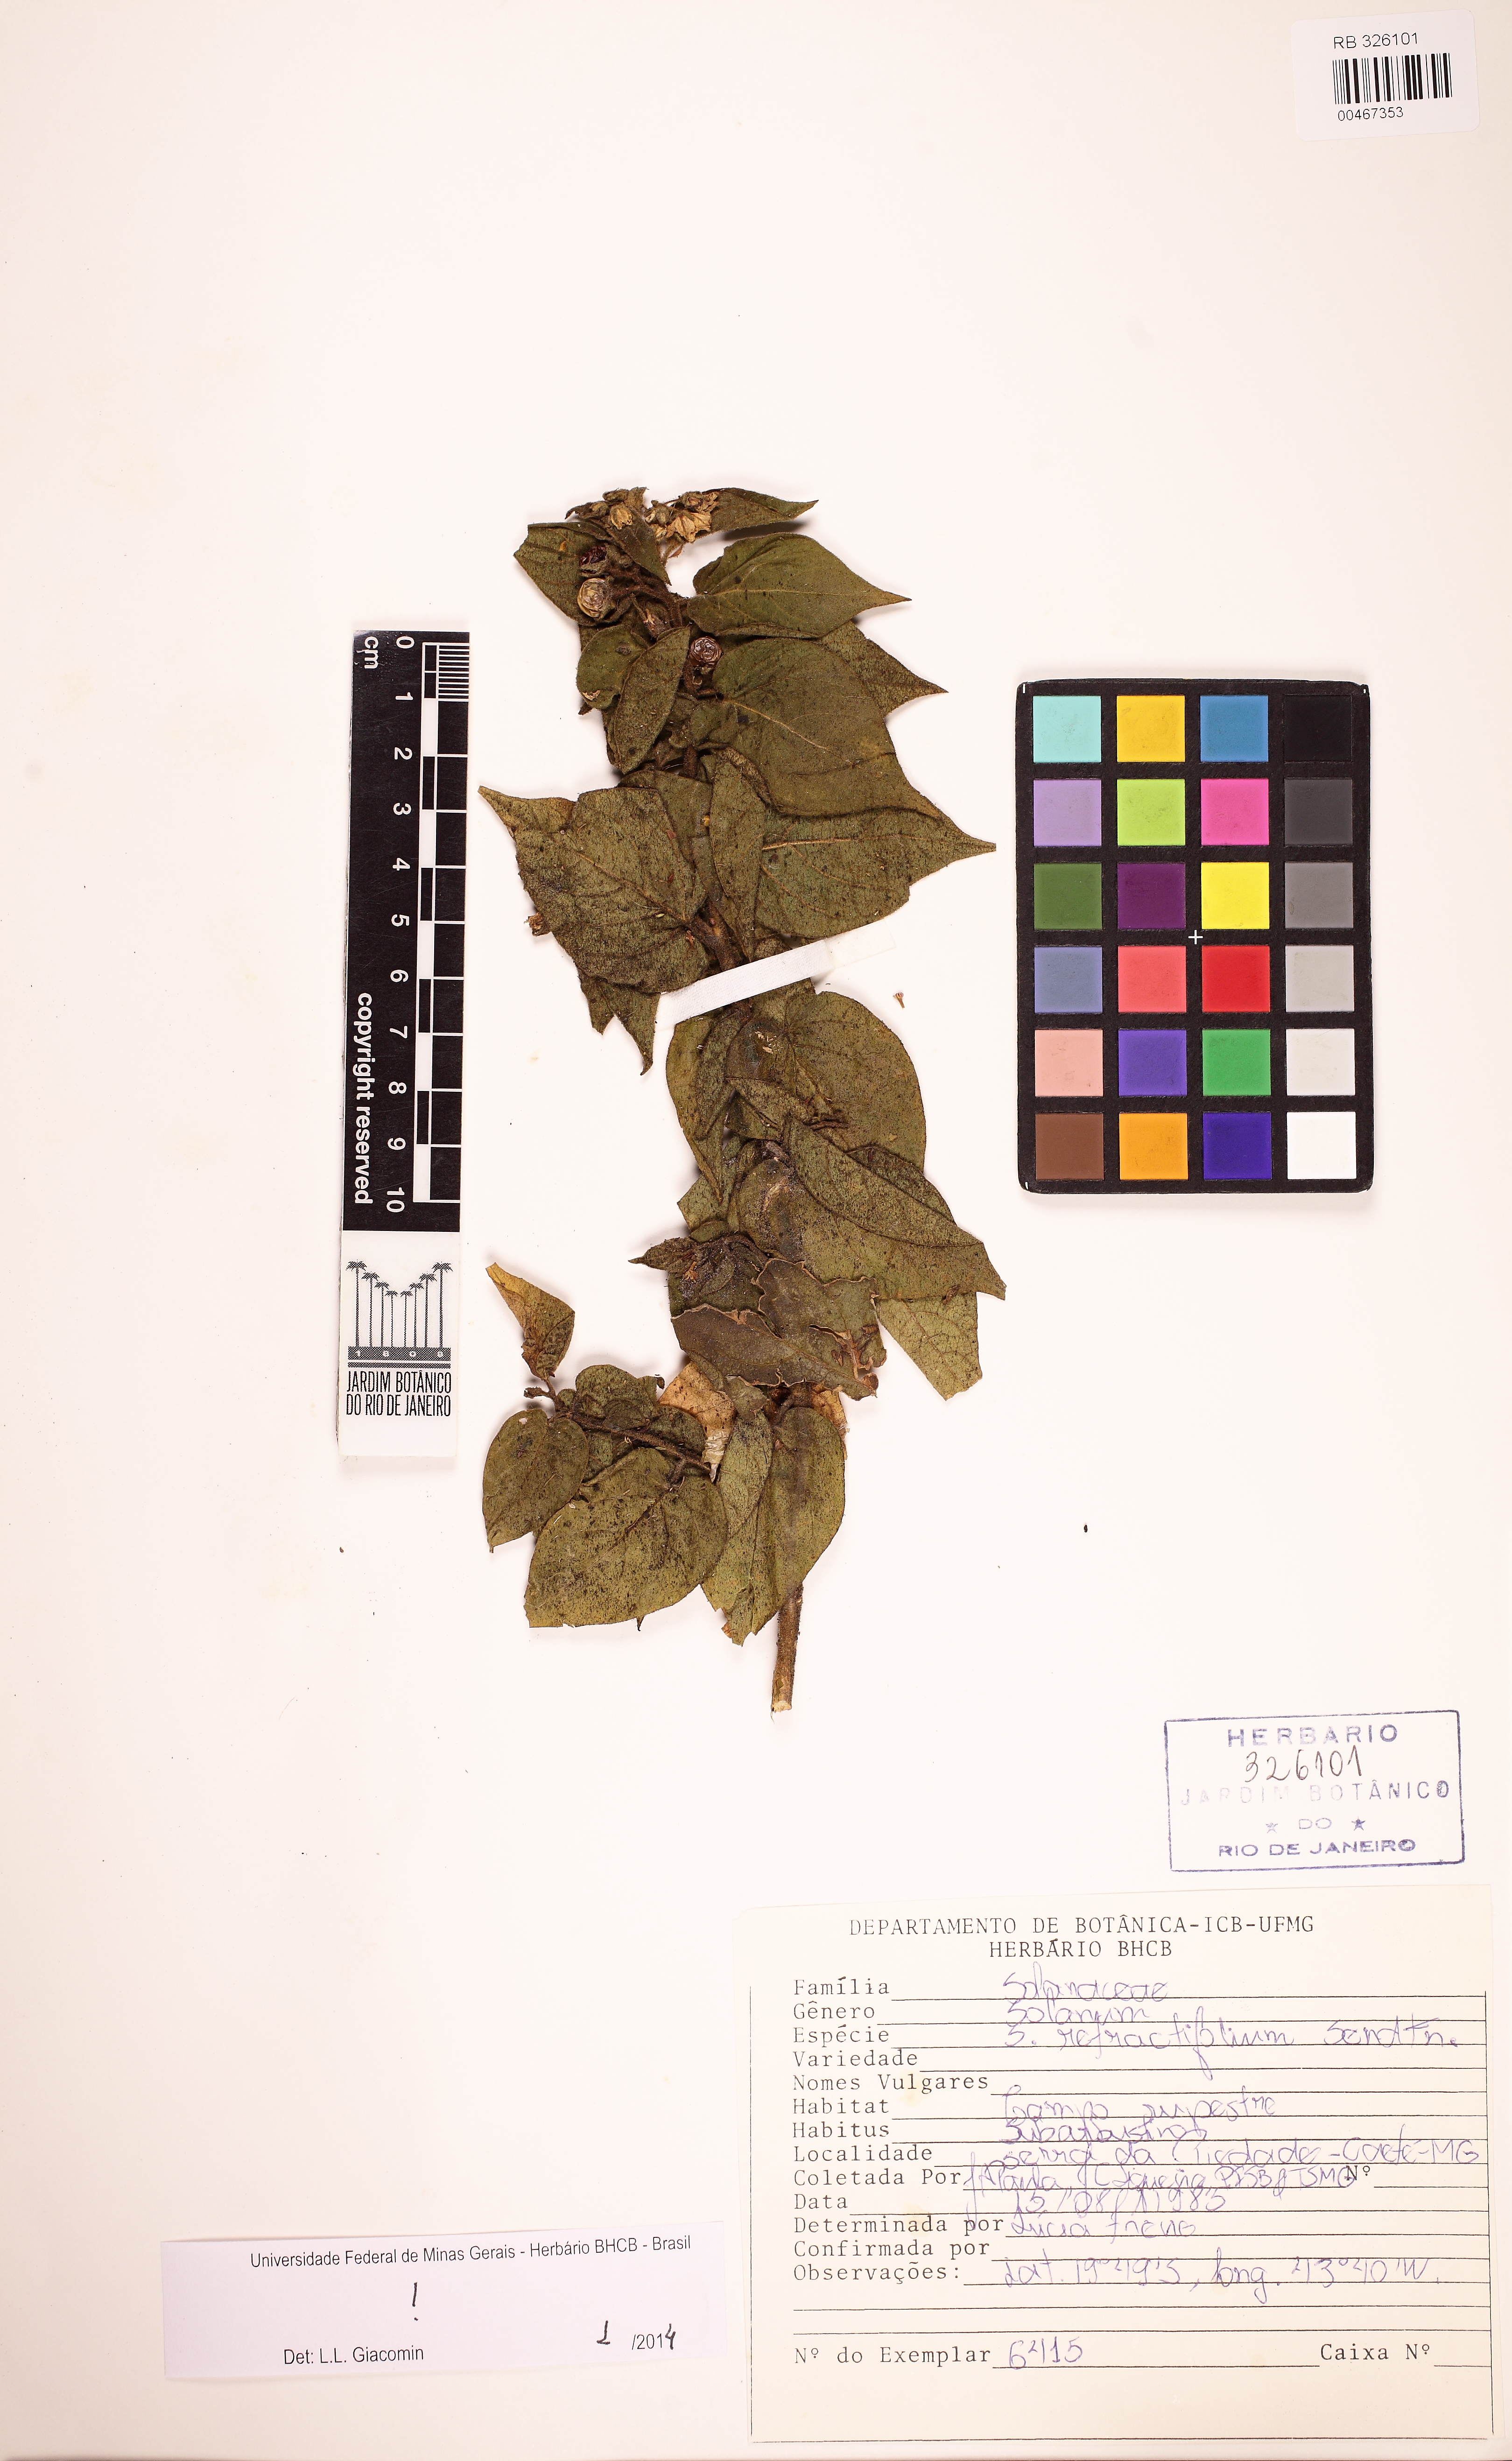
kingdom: Plantae
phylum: Tracheophyta
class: Magnoliopsida
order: Solanales
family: Solanaceae
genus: Solanum
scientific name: Solanum refractifolium
